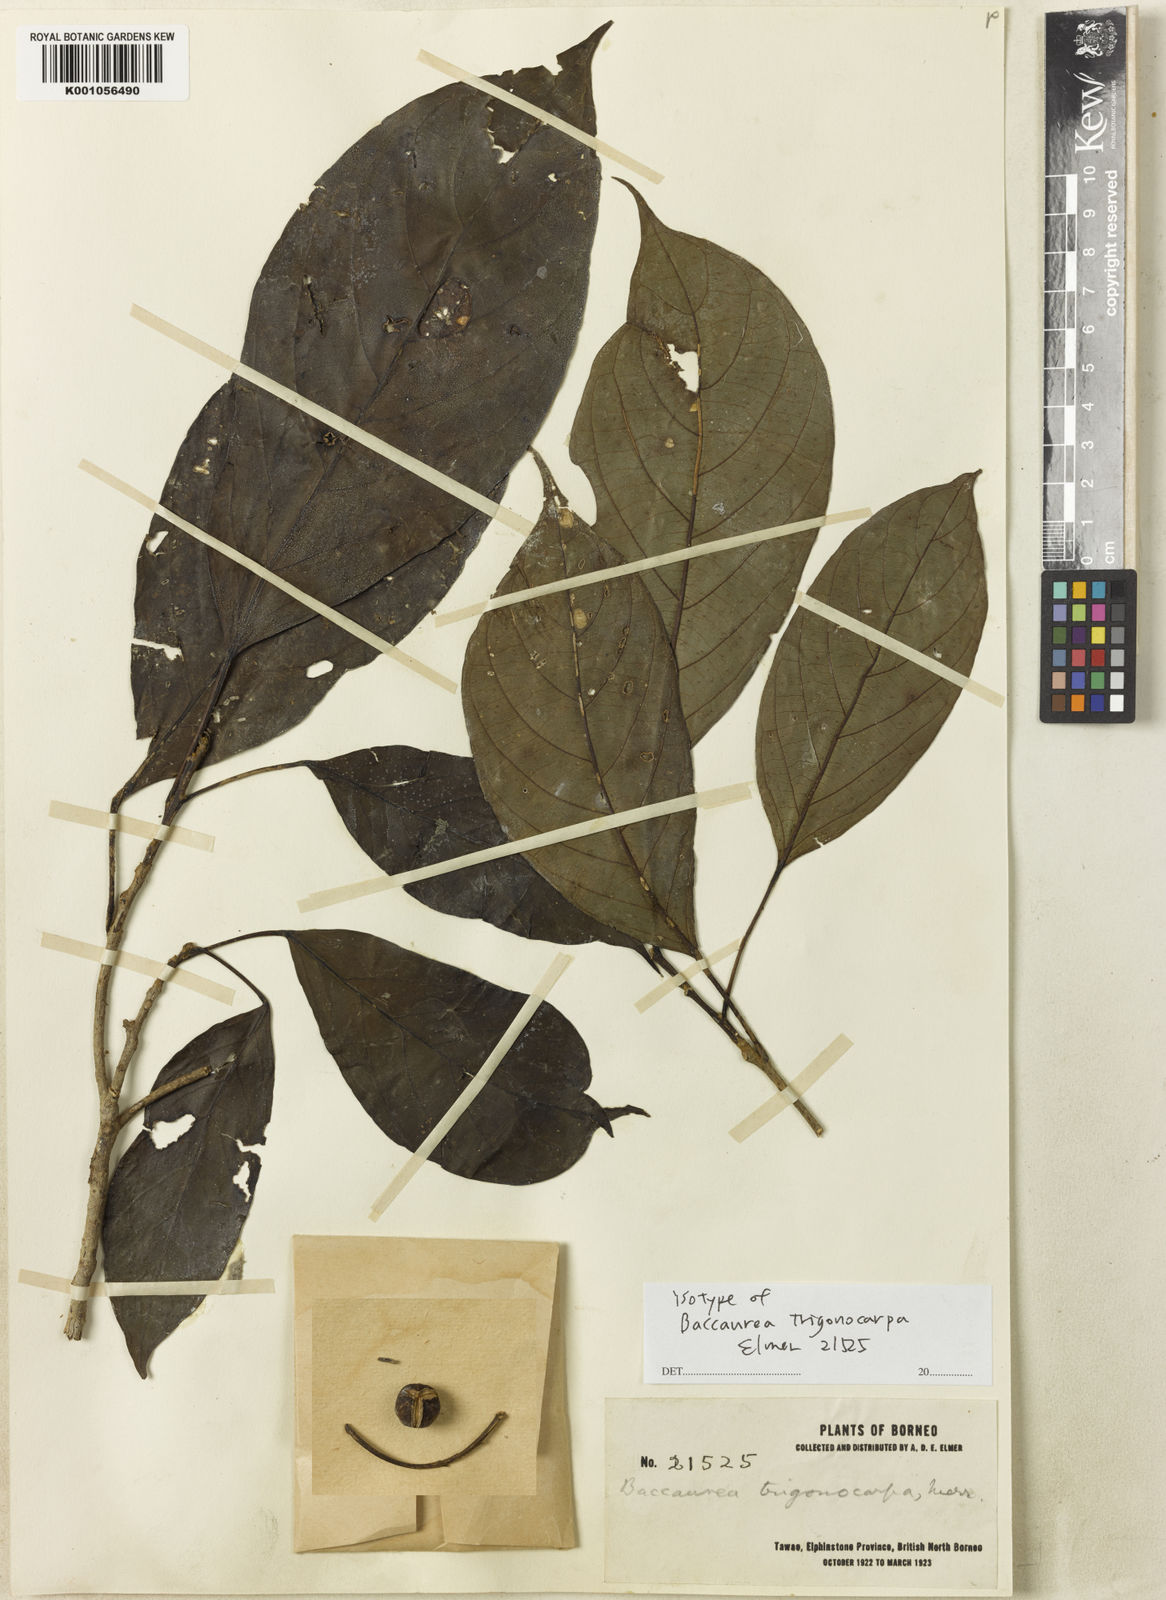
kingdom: Plantae
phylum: Tracheophyta
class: Magnoliopsida
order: Malpighiales
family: Phyllanthaceae
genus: Baccaurea
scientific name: Baccaurea trigonocarpa
